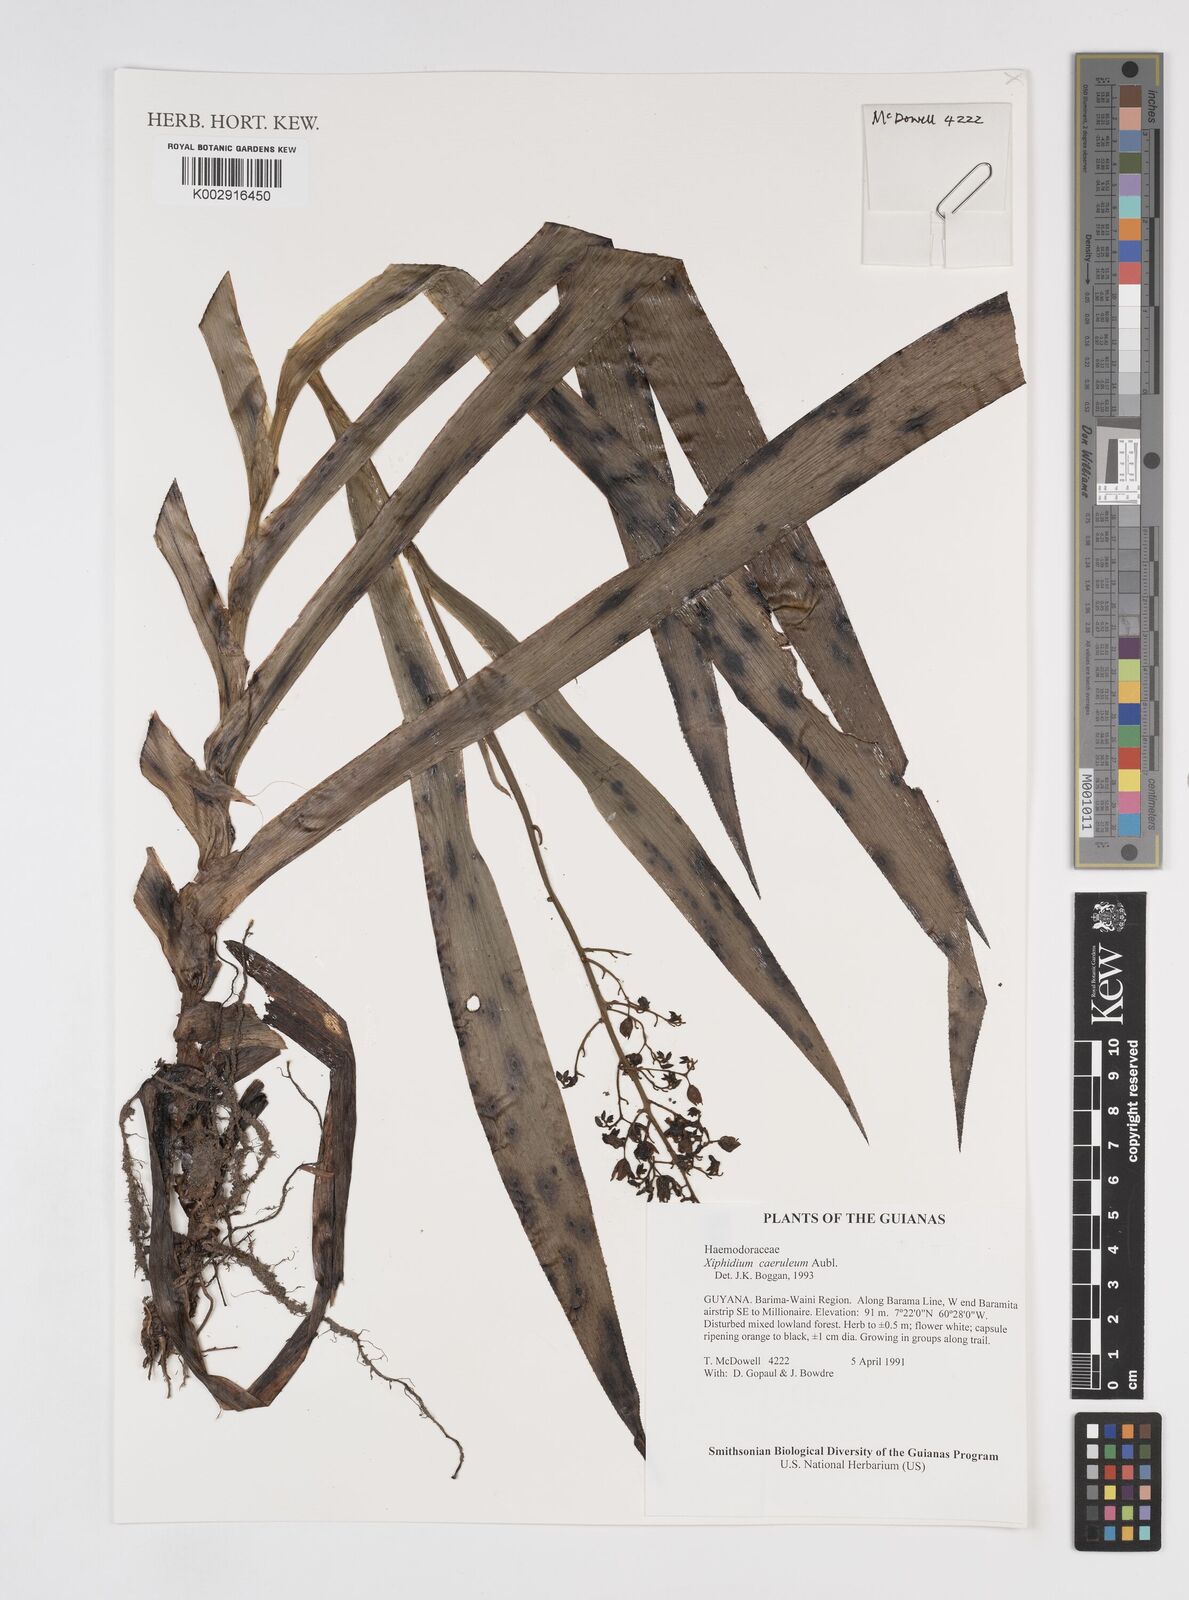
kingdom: Plantae
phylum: Tracheophyta
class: Liliopsida
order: Commelinales
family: Haemodoraceae
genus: Xiphidium
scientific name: Xiphidium caeruleum
